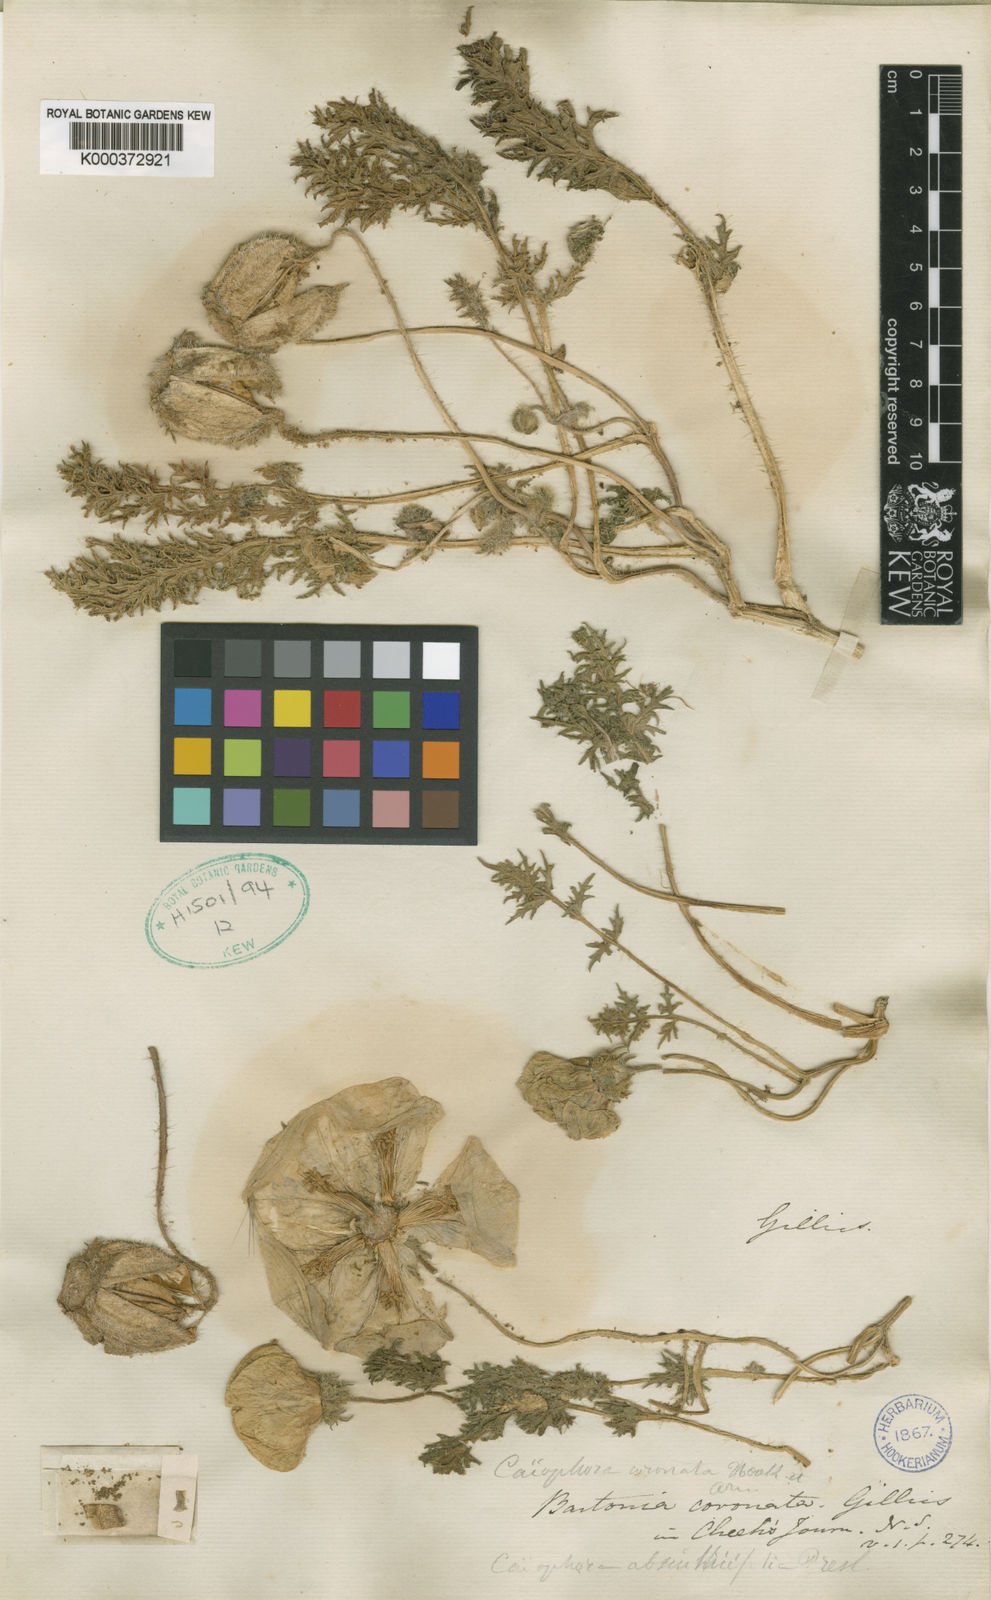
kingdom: Plantae
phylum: Tracheophyta
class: Magnoliopsida
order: Cornales
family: Loasaceae
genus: Caiophora
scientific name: Caiophora coronata
